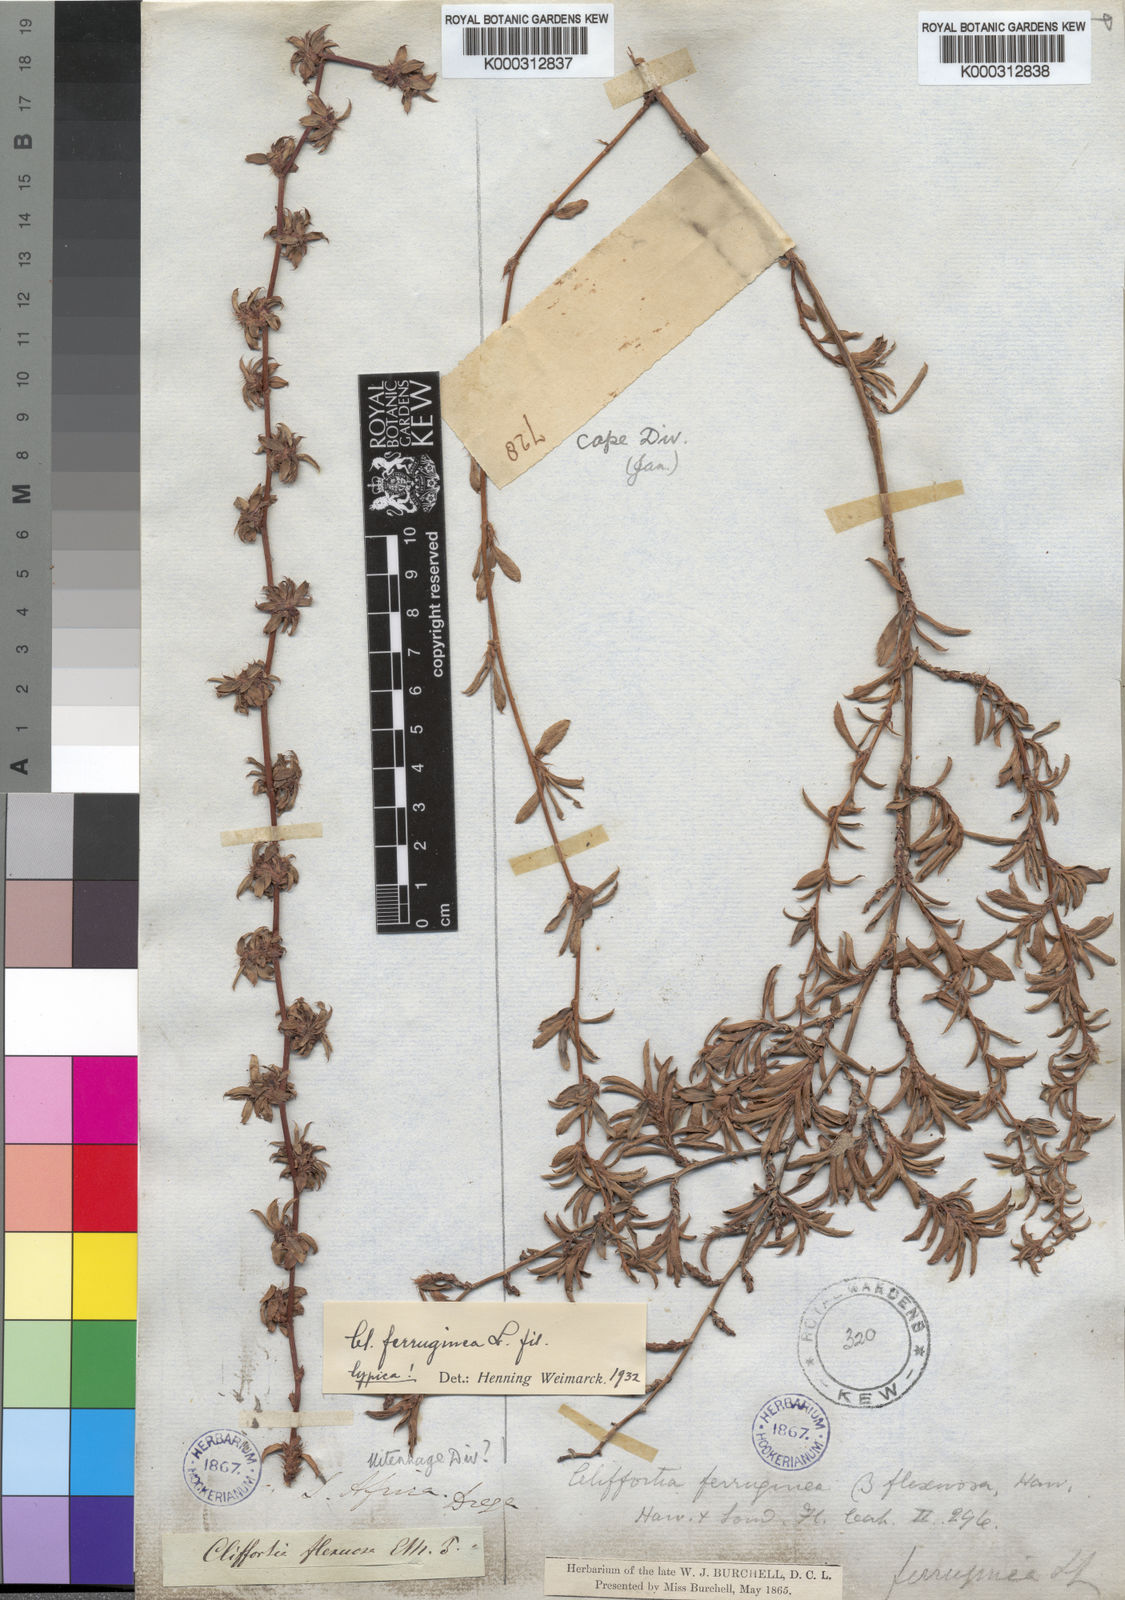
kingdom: Plantae
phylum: Tracheophyta
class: Magnoliopsida
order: Rosales
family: Rosaceae
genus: Cliffortia
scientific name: Cliffortia ferruginea
